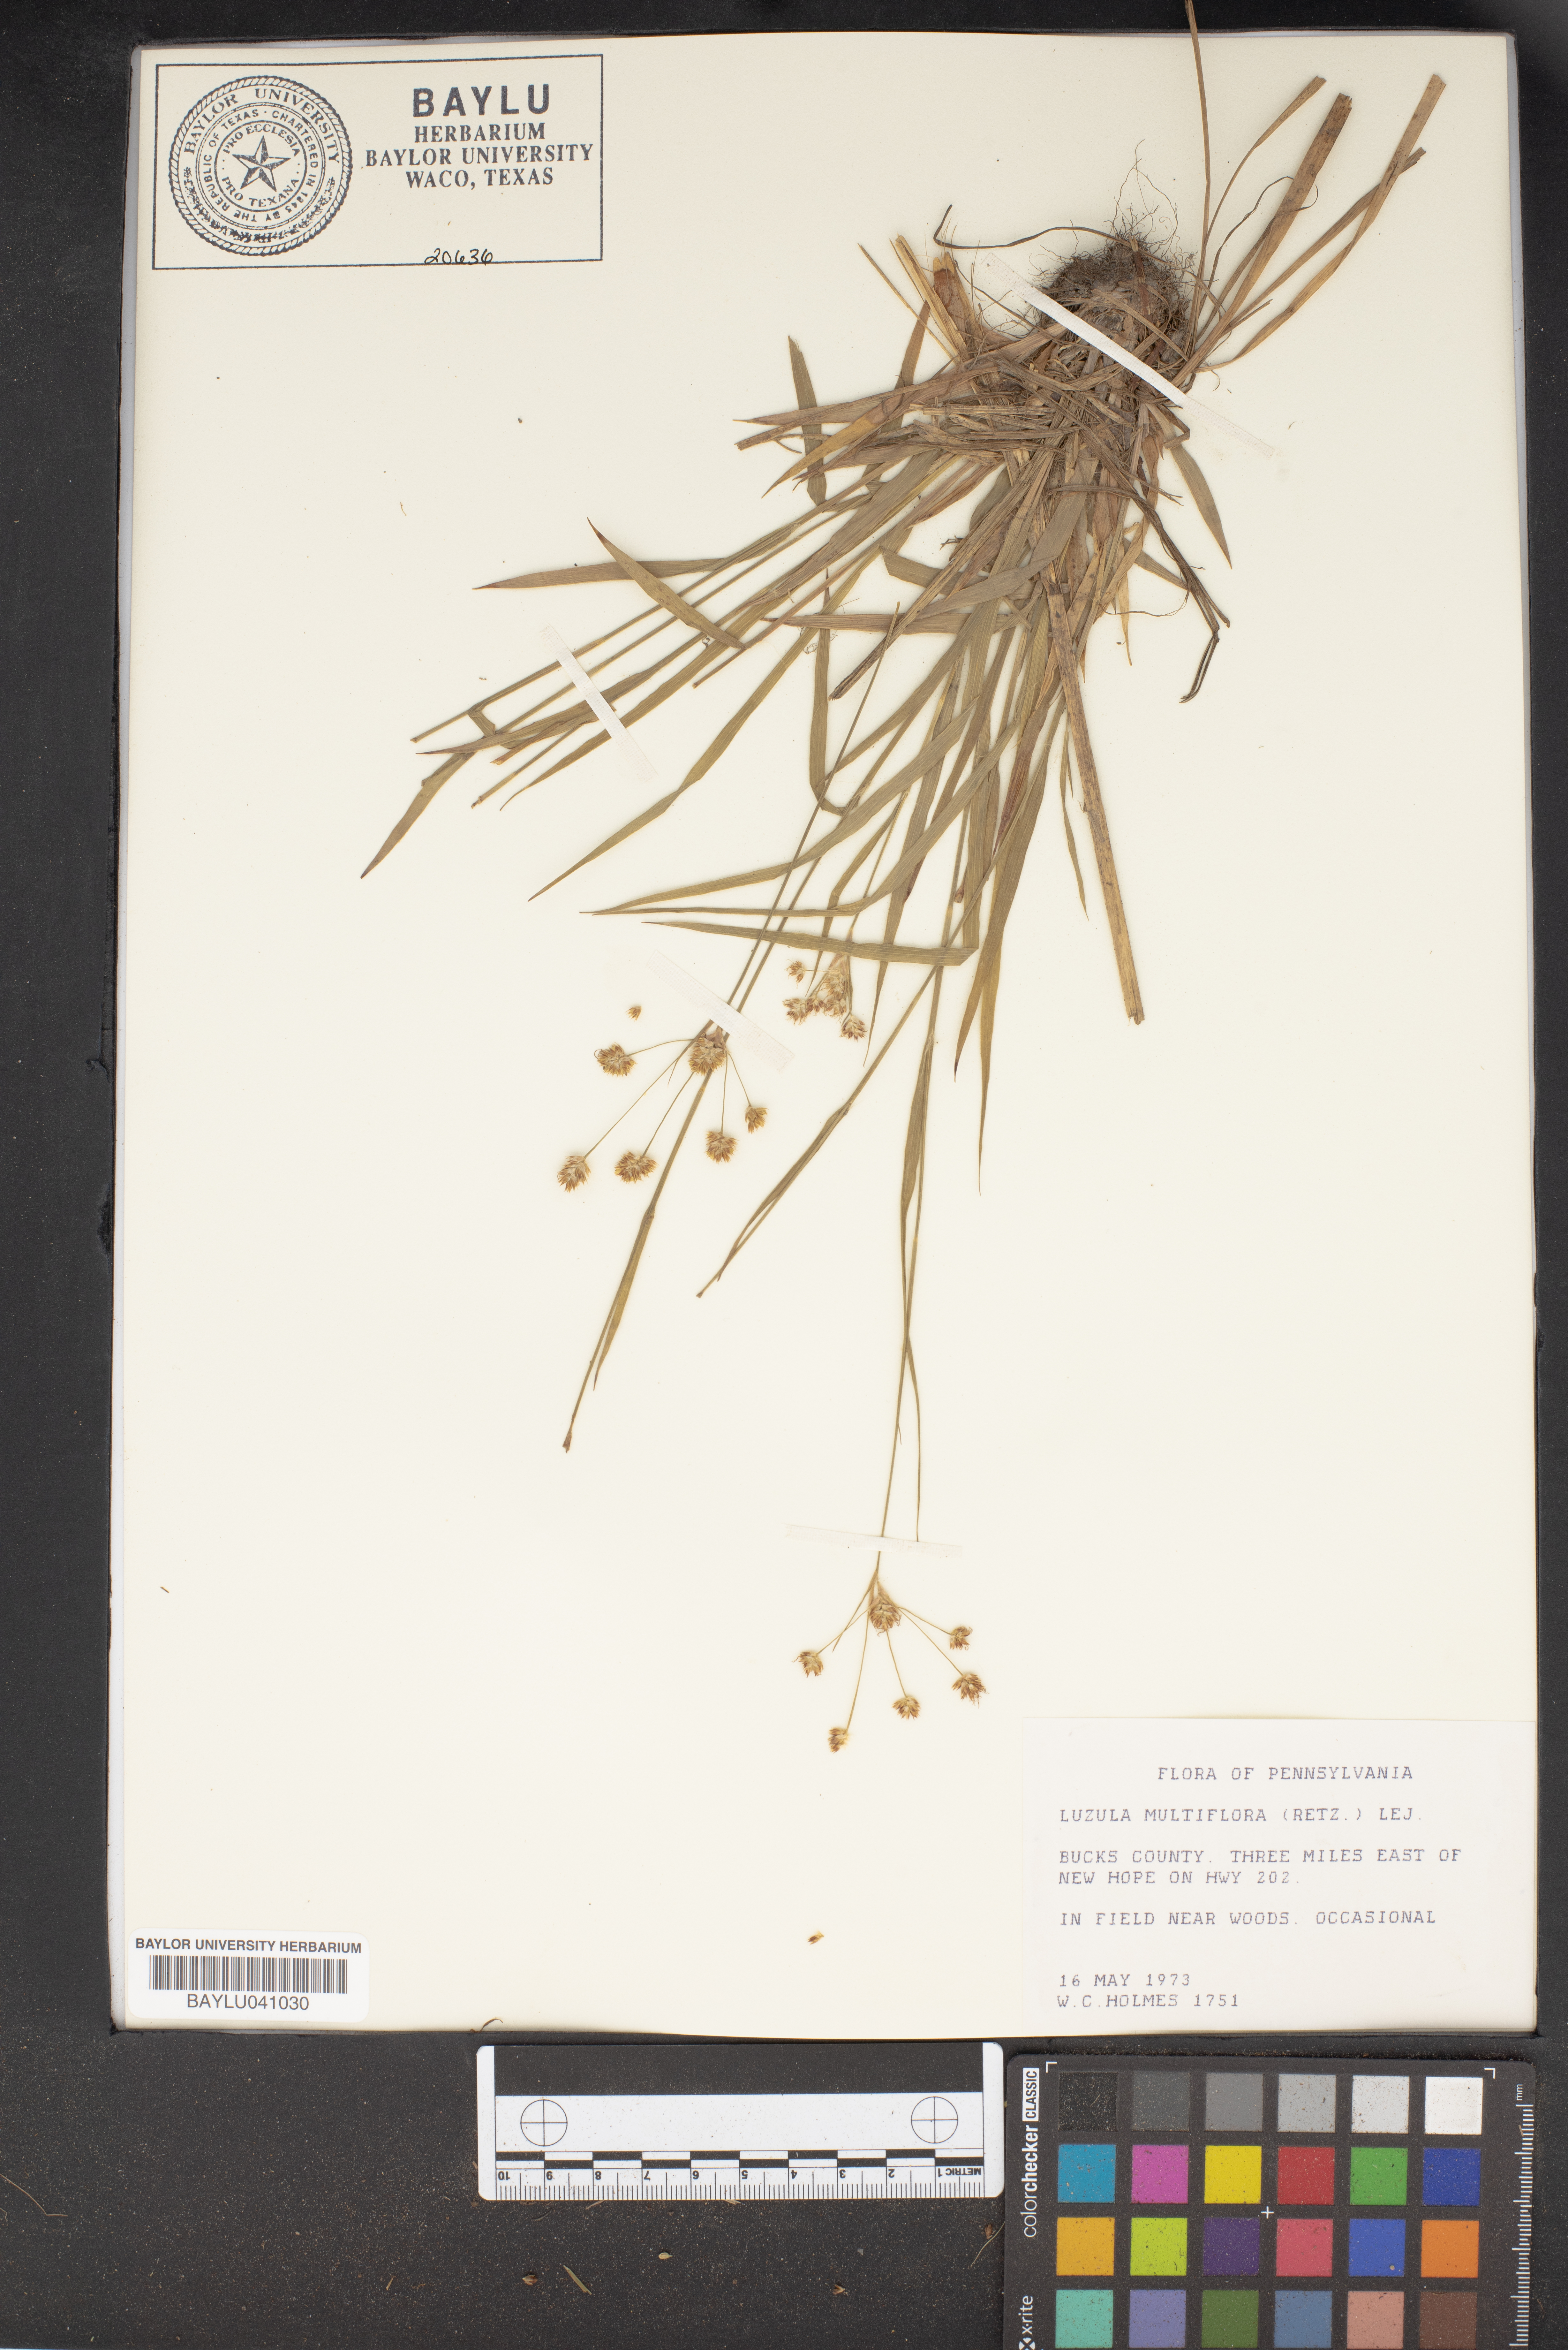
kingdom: Plantae
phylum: Tracheophyta
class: Liliopsida
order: Poales
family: Juncaceae
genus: Luzula
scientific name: Luzula multiflora
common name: Heath wood-rush
